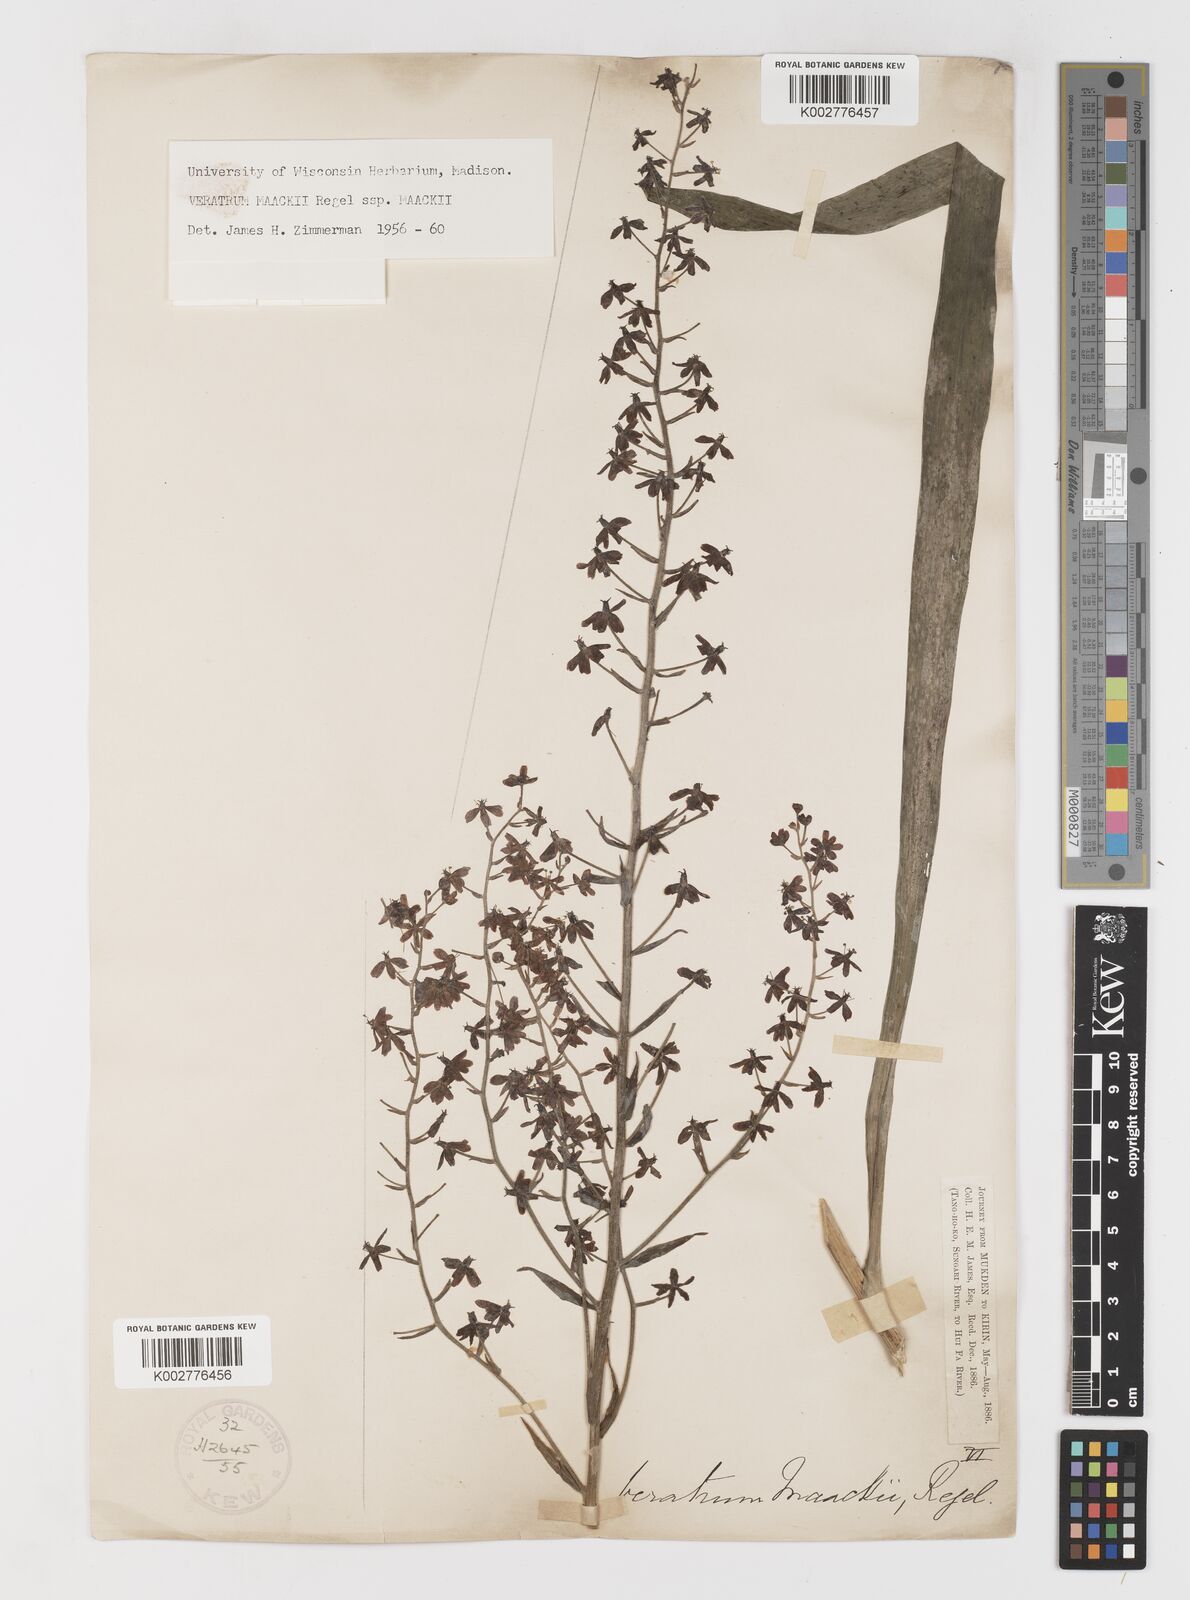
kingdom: Plantae
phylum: Tracheophyta
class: Liliopsida
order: Liliales
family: Melanthiaceae
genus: Veratrum
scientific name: Veratrum maackii
